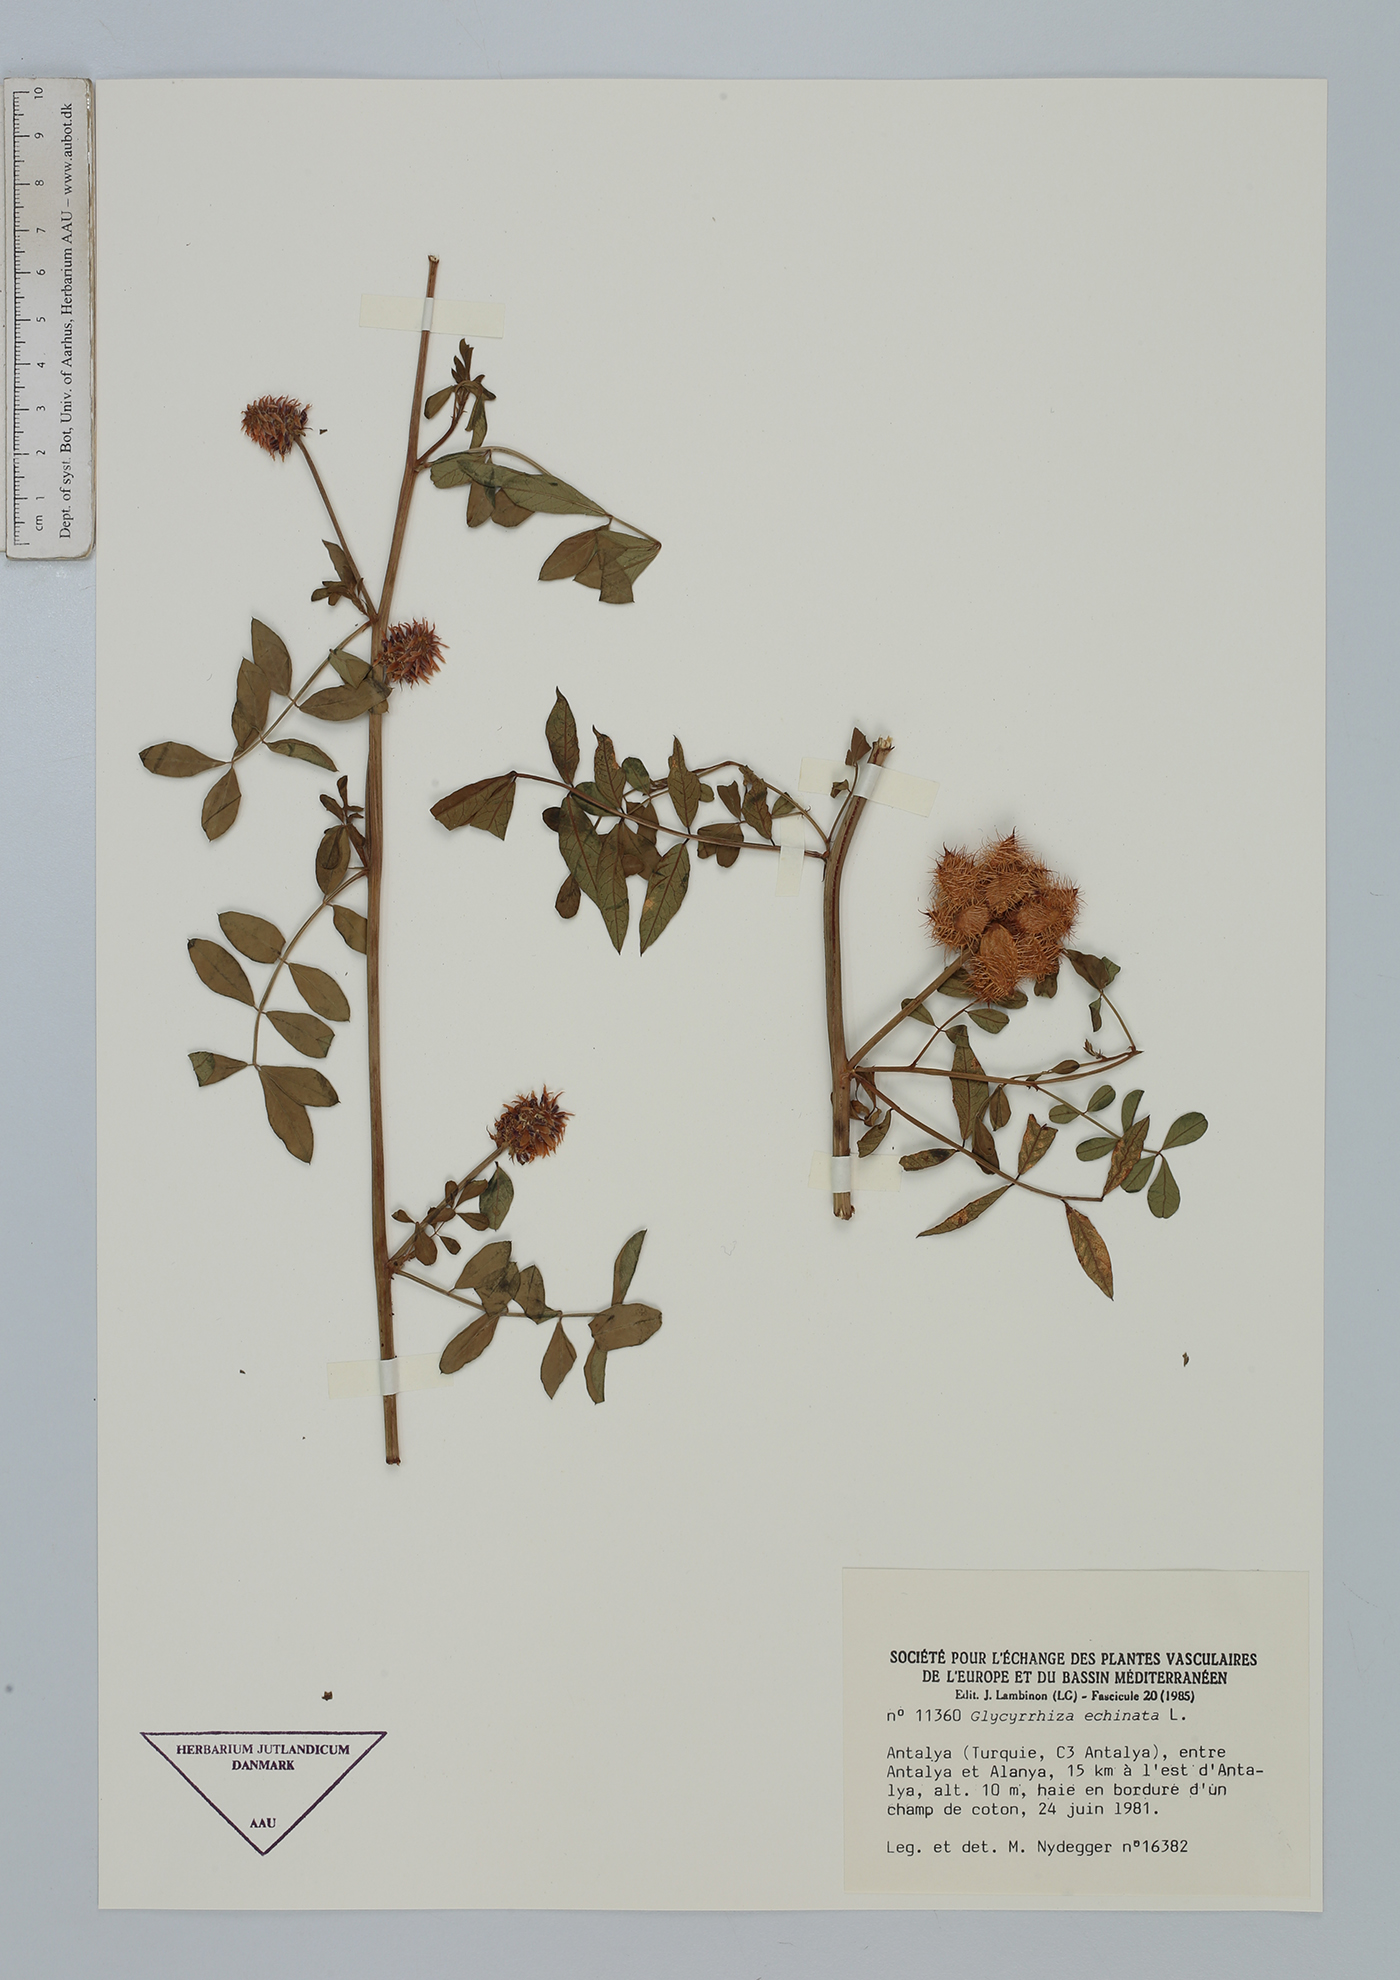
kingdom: Plantae
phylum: Tracheophyta
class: Magnoliopsida
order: Fabales
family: Fabaceae
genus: Glycyrrhiza
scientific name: Glycyrrhiza echinata
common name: German liquorice
